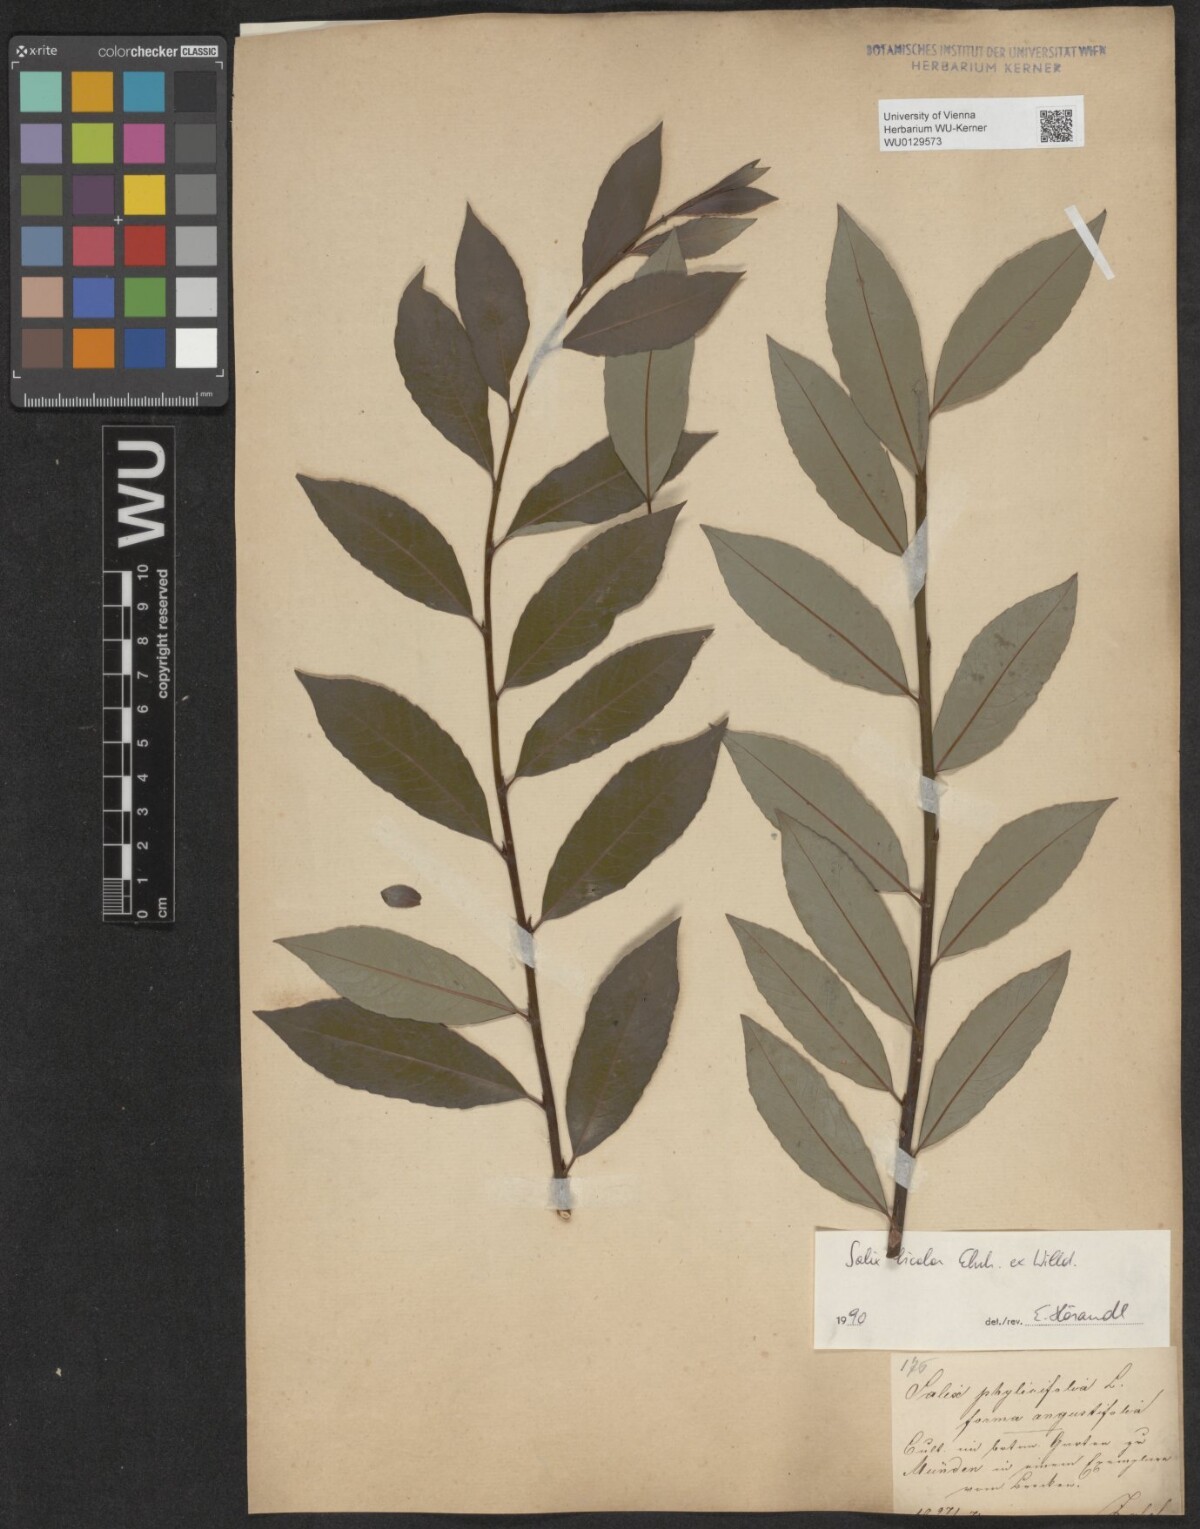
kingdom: Plantae
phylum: Tracheophyta
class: Magnoliopsida
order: Malpighiales
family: Salicaceae
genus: Salix
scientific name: Salix bicolor
